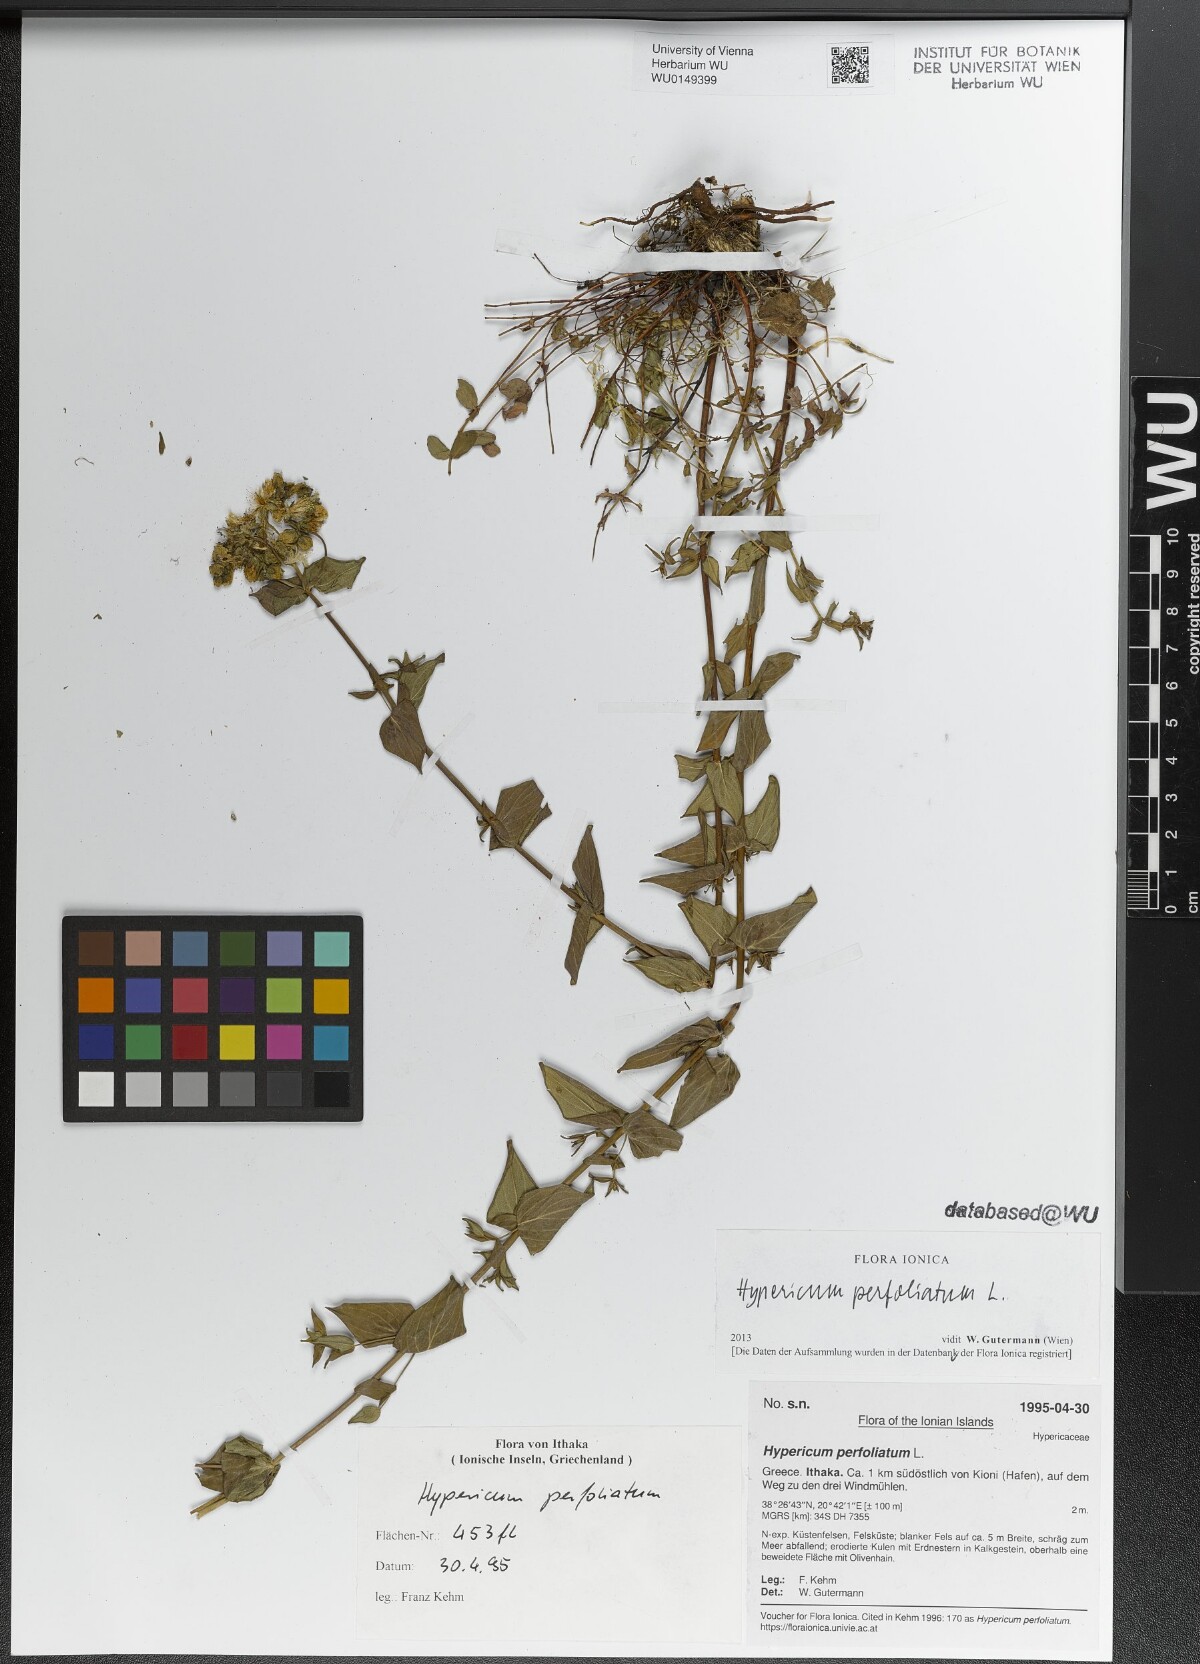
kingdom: Plantae
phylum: Tracheophyta
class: Magnoliopsida
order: Malpighiales
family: Hypericaceae
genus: Hypericum
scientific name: Hypericum perfoliatum
